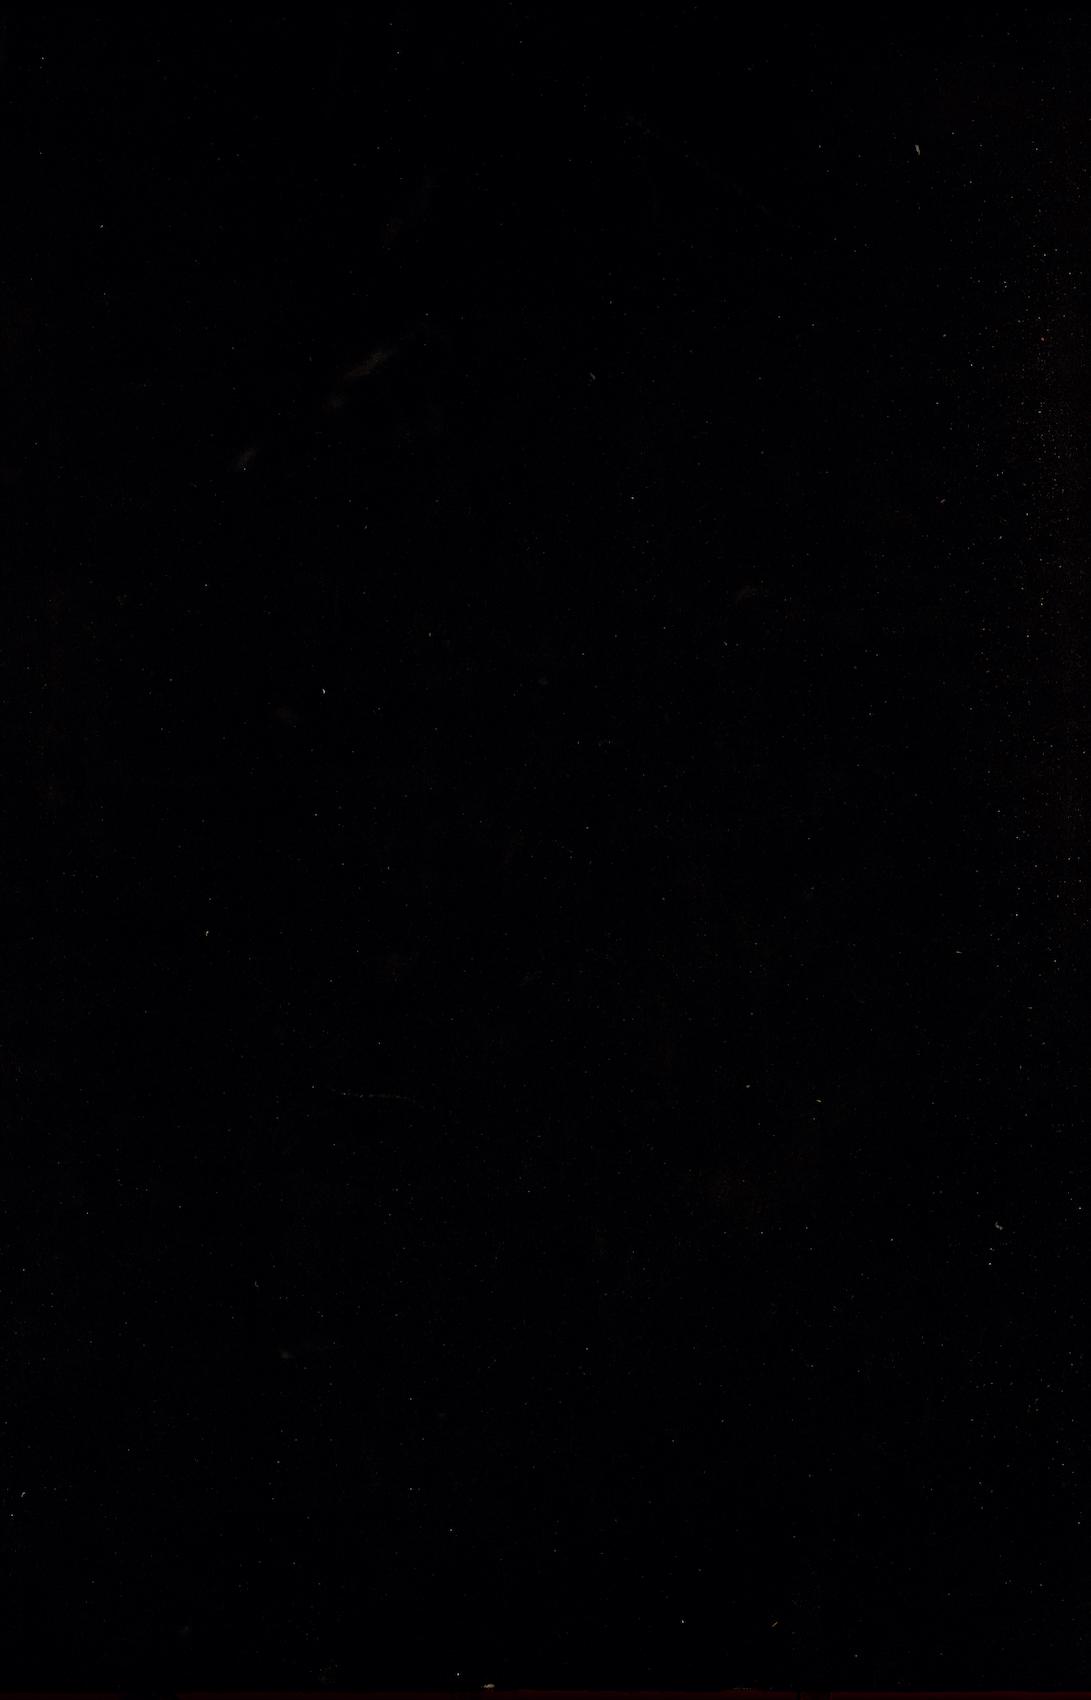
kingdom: Plantae
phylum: Tracheophyta
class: Liliopsida
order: Poales
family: Poaceae
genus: Atractantha
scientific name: Atractantha radiata
